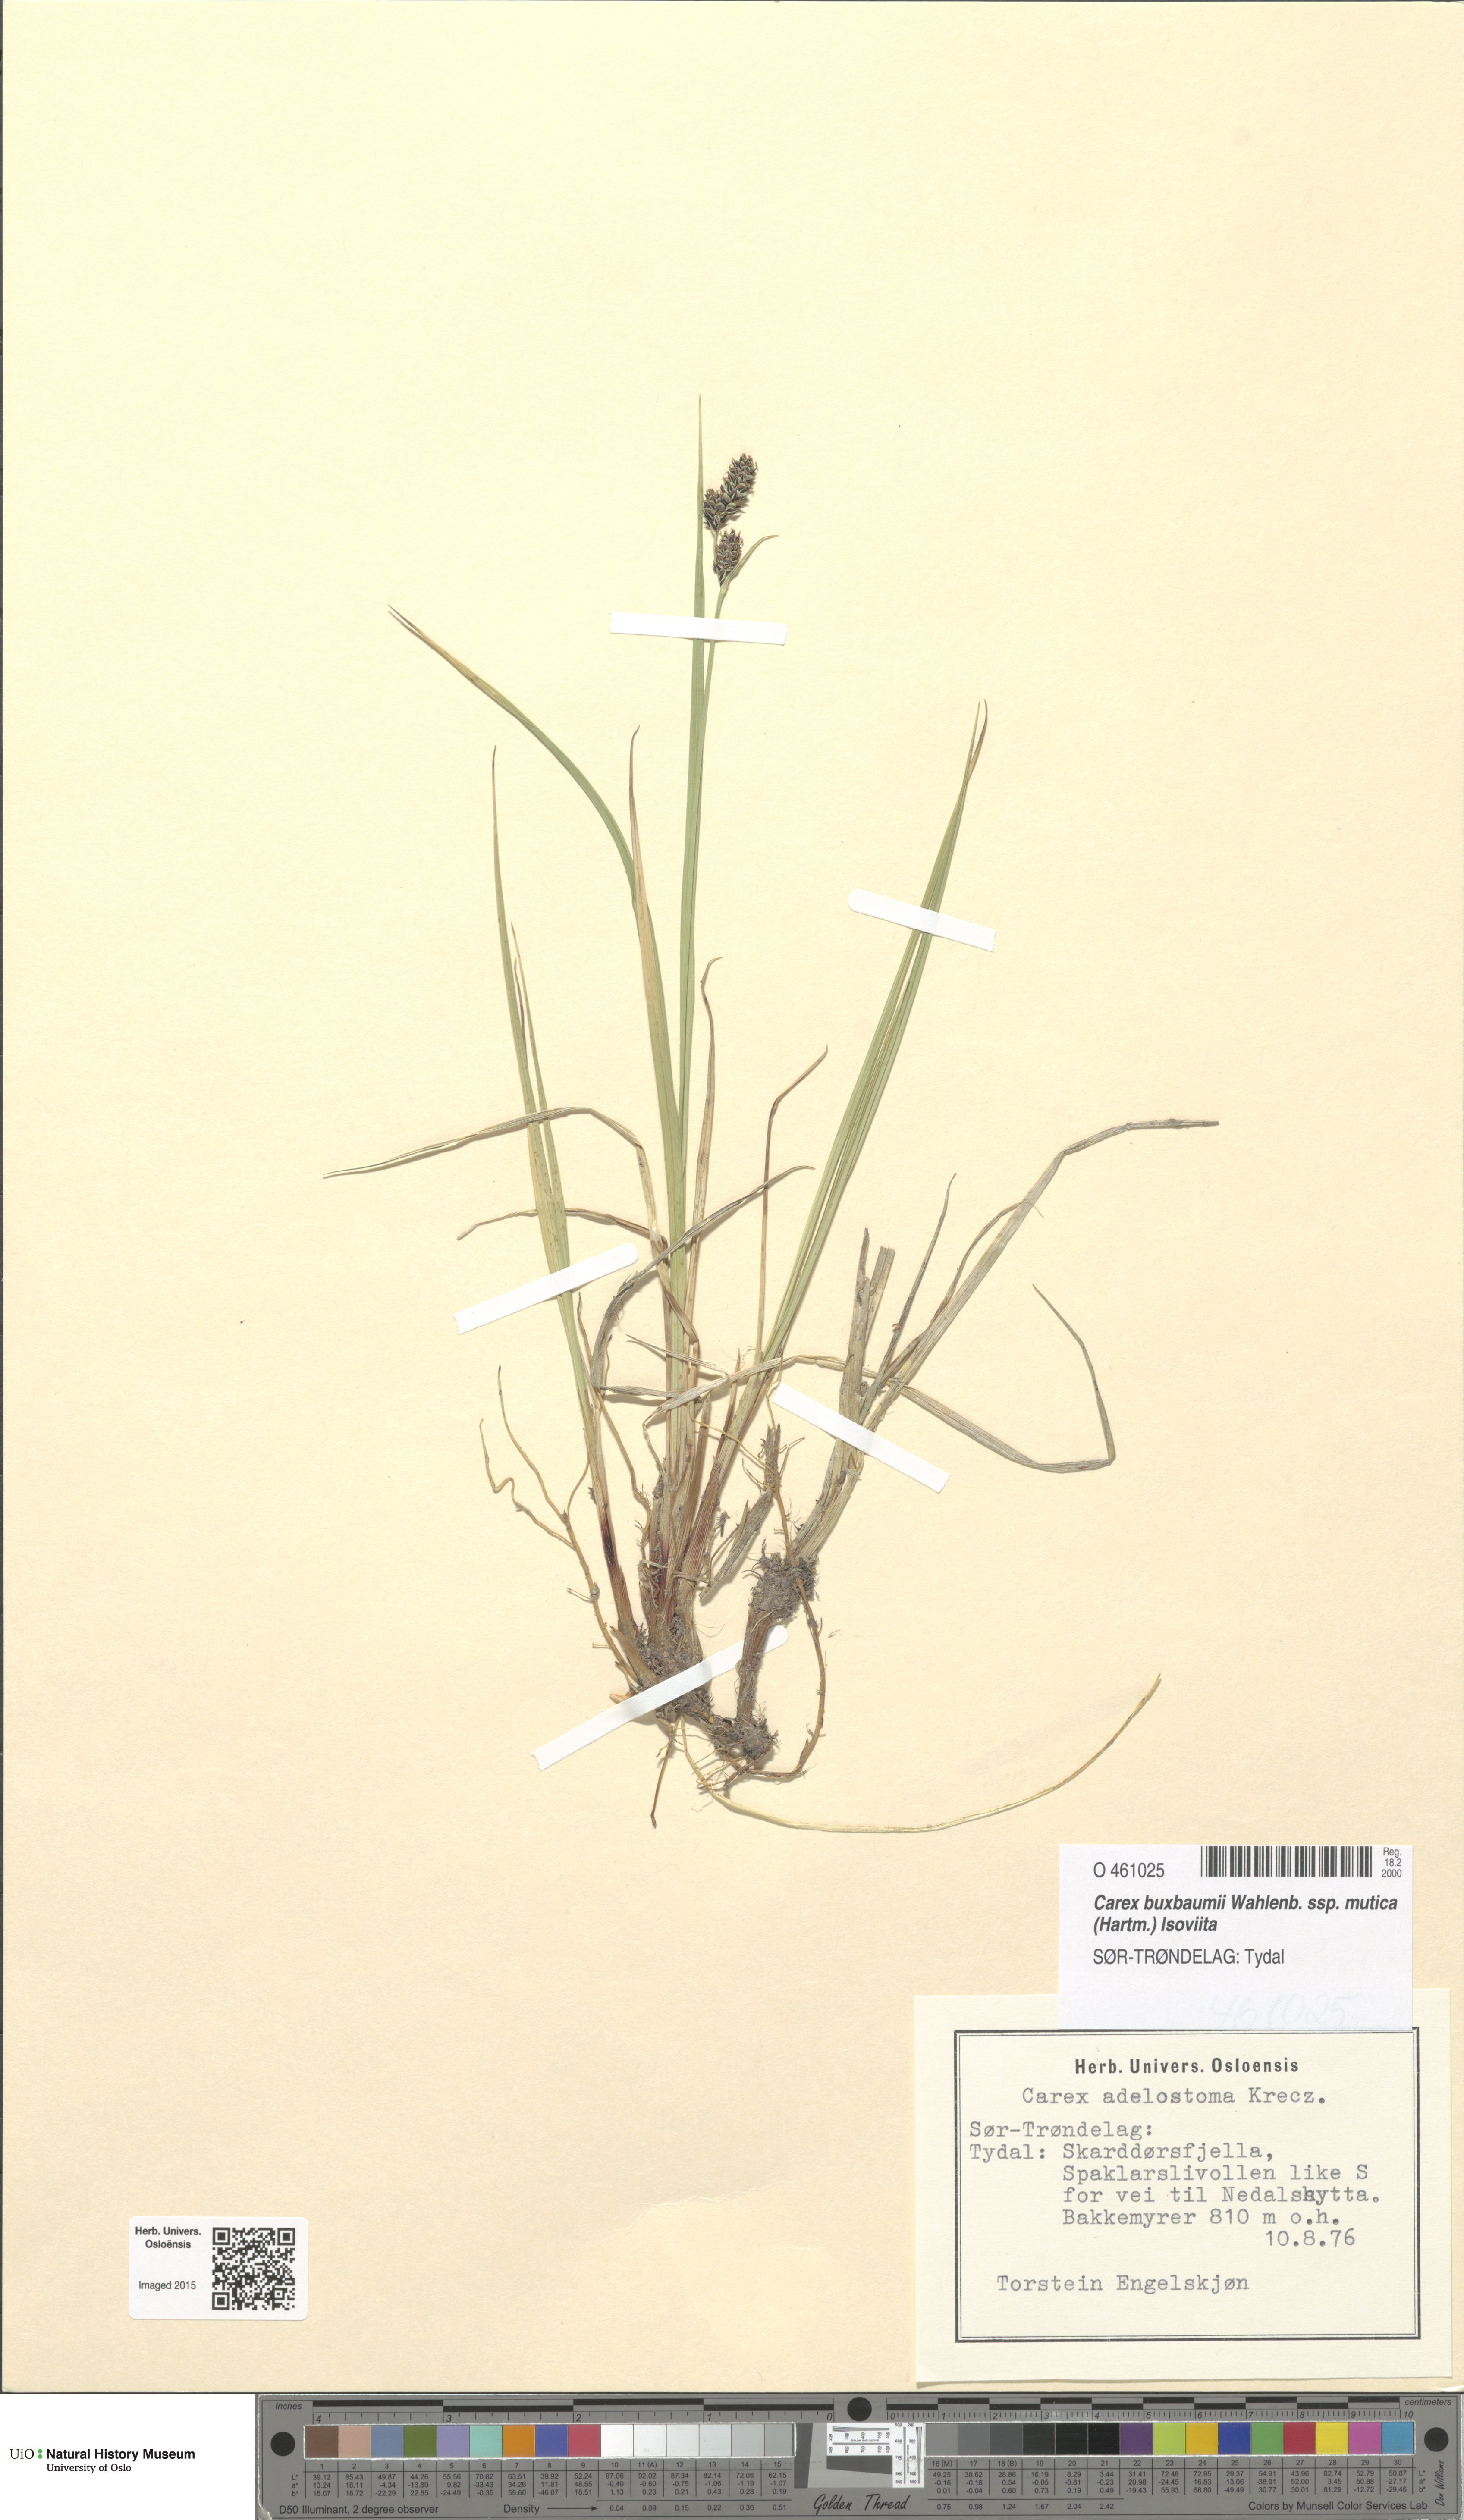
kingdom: Plantae
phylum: Tracheophyta
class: Liliopsida
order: Poales
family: Cyperaceae
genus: Carex
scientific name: Carex adelostoma
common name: Circumpolar sedge
